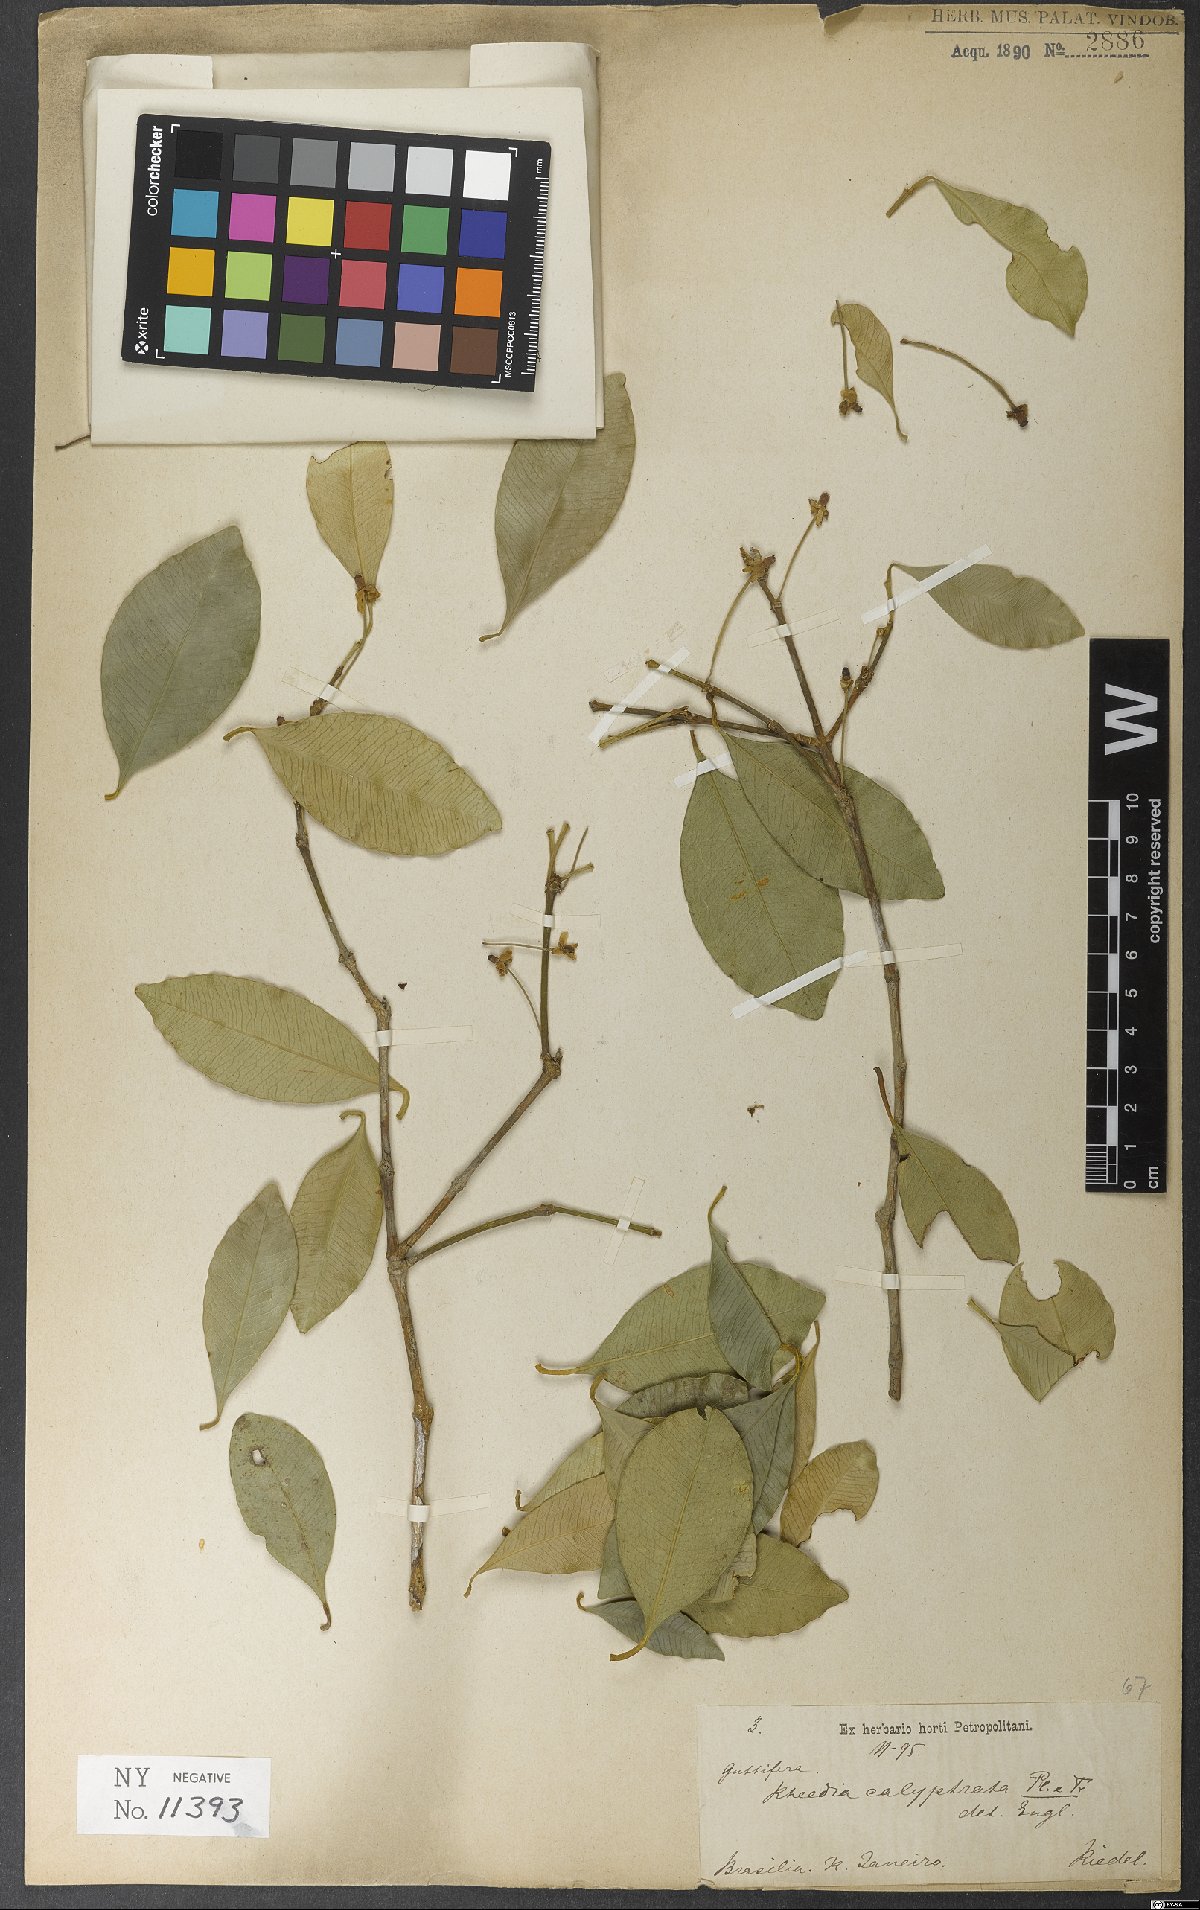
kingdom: Plantae
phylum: Tracheophyta
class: Magnoliopsida
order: Malpighiales
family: Clusiaceae
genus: Garcinia
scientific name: Garcinia gardneriana
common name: Achacha
